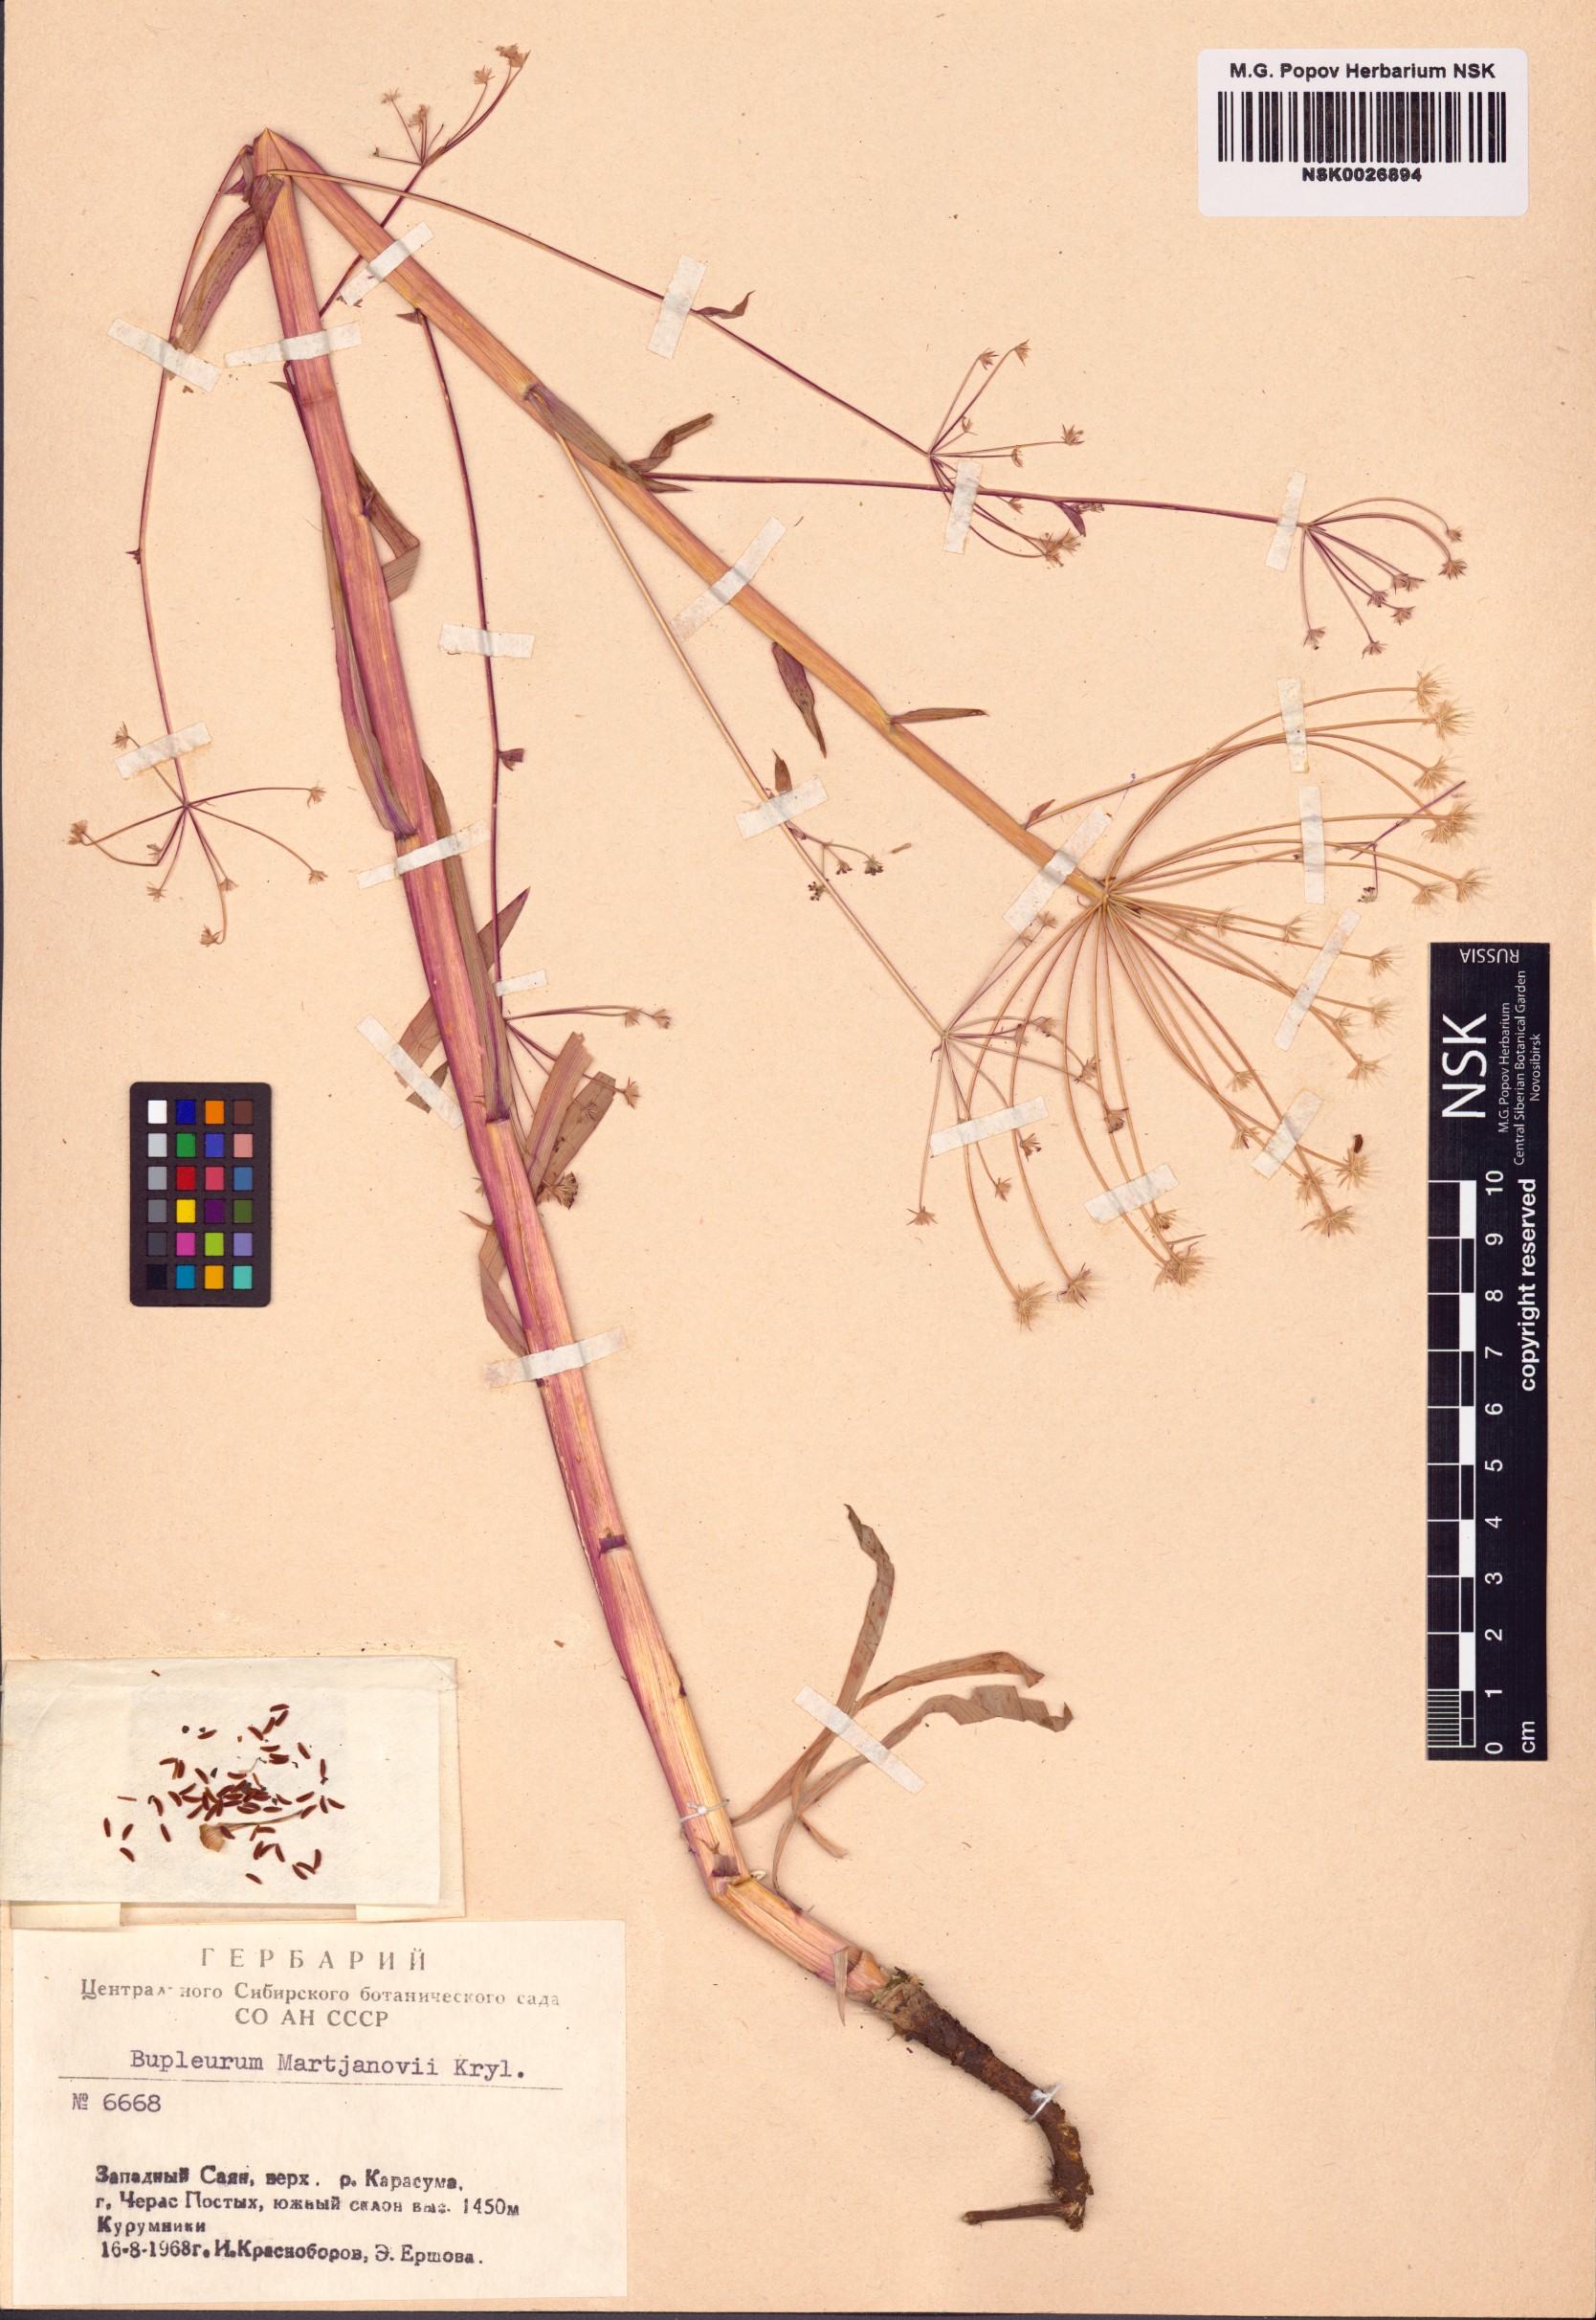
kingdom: Plantae
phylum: Tracheophyta
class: Magnoliopsida
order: Apiales
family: Apiaceae
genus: Bupleurum
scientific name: Bupleurum martjanovii
